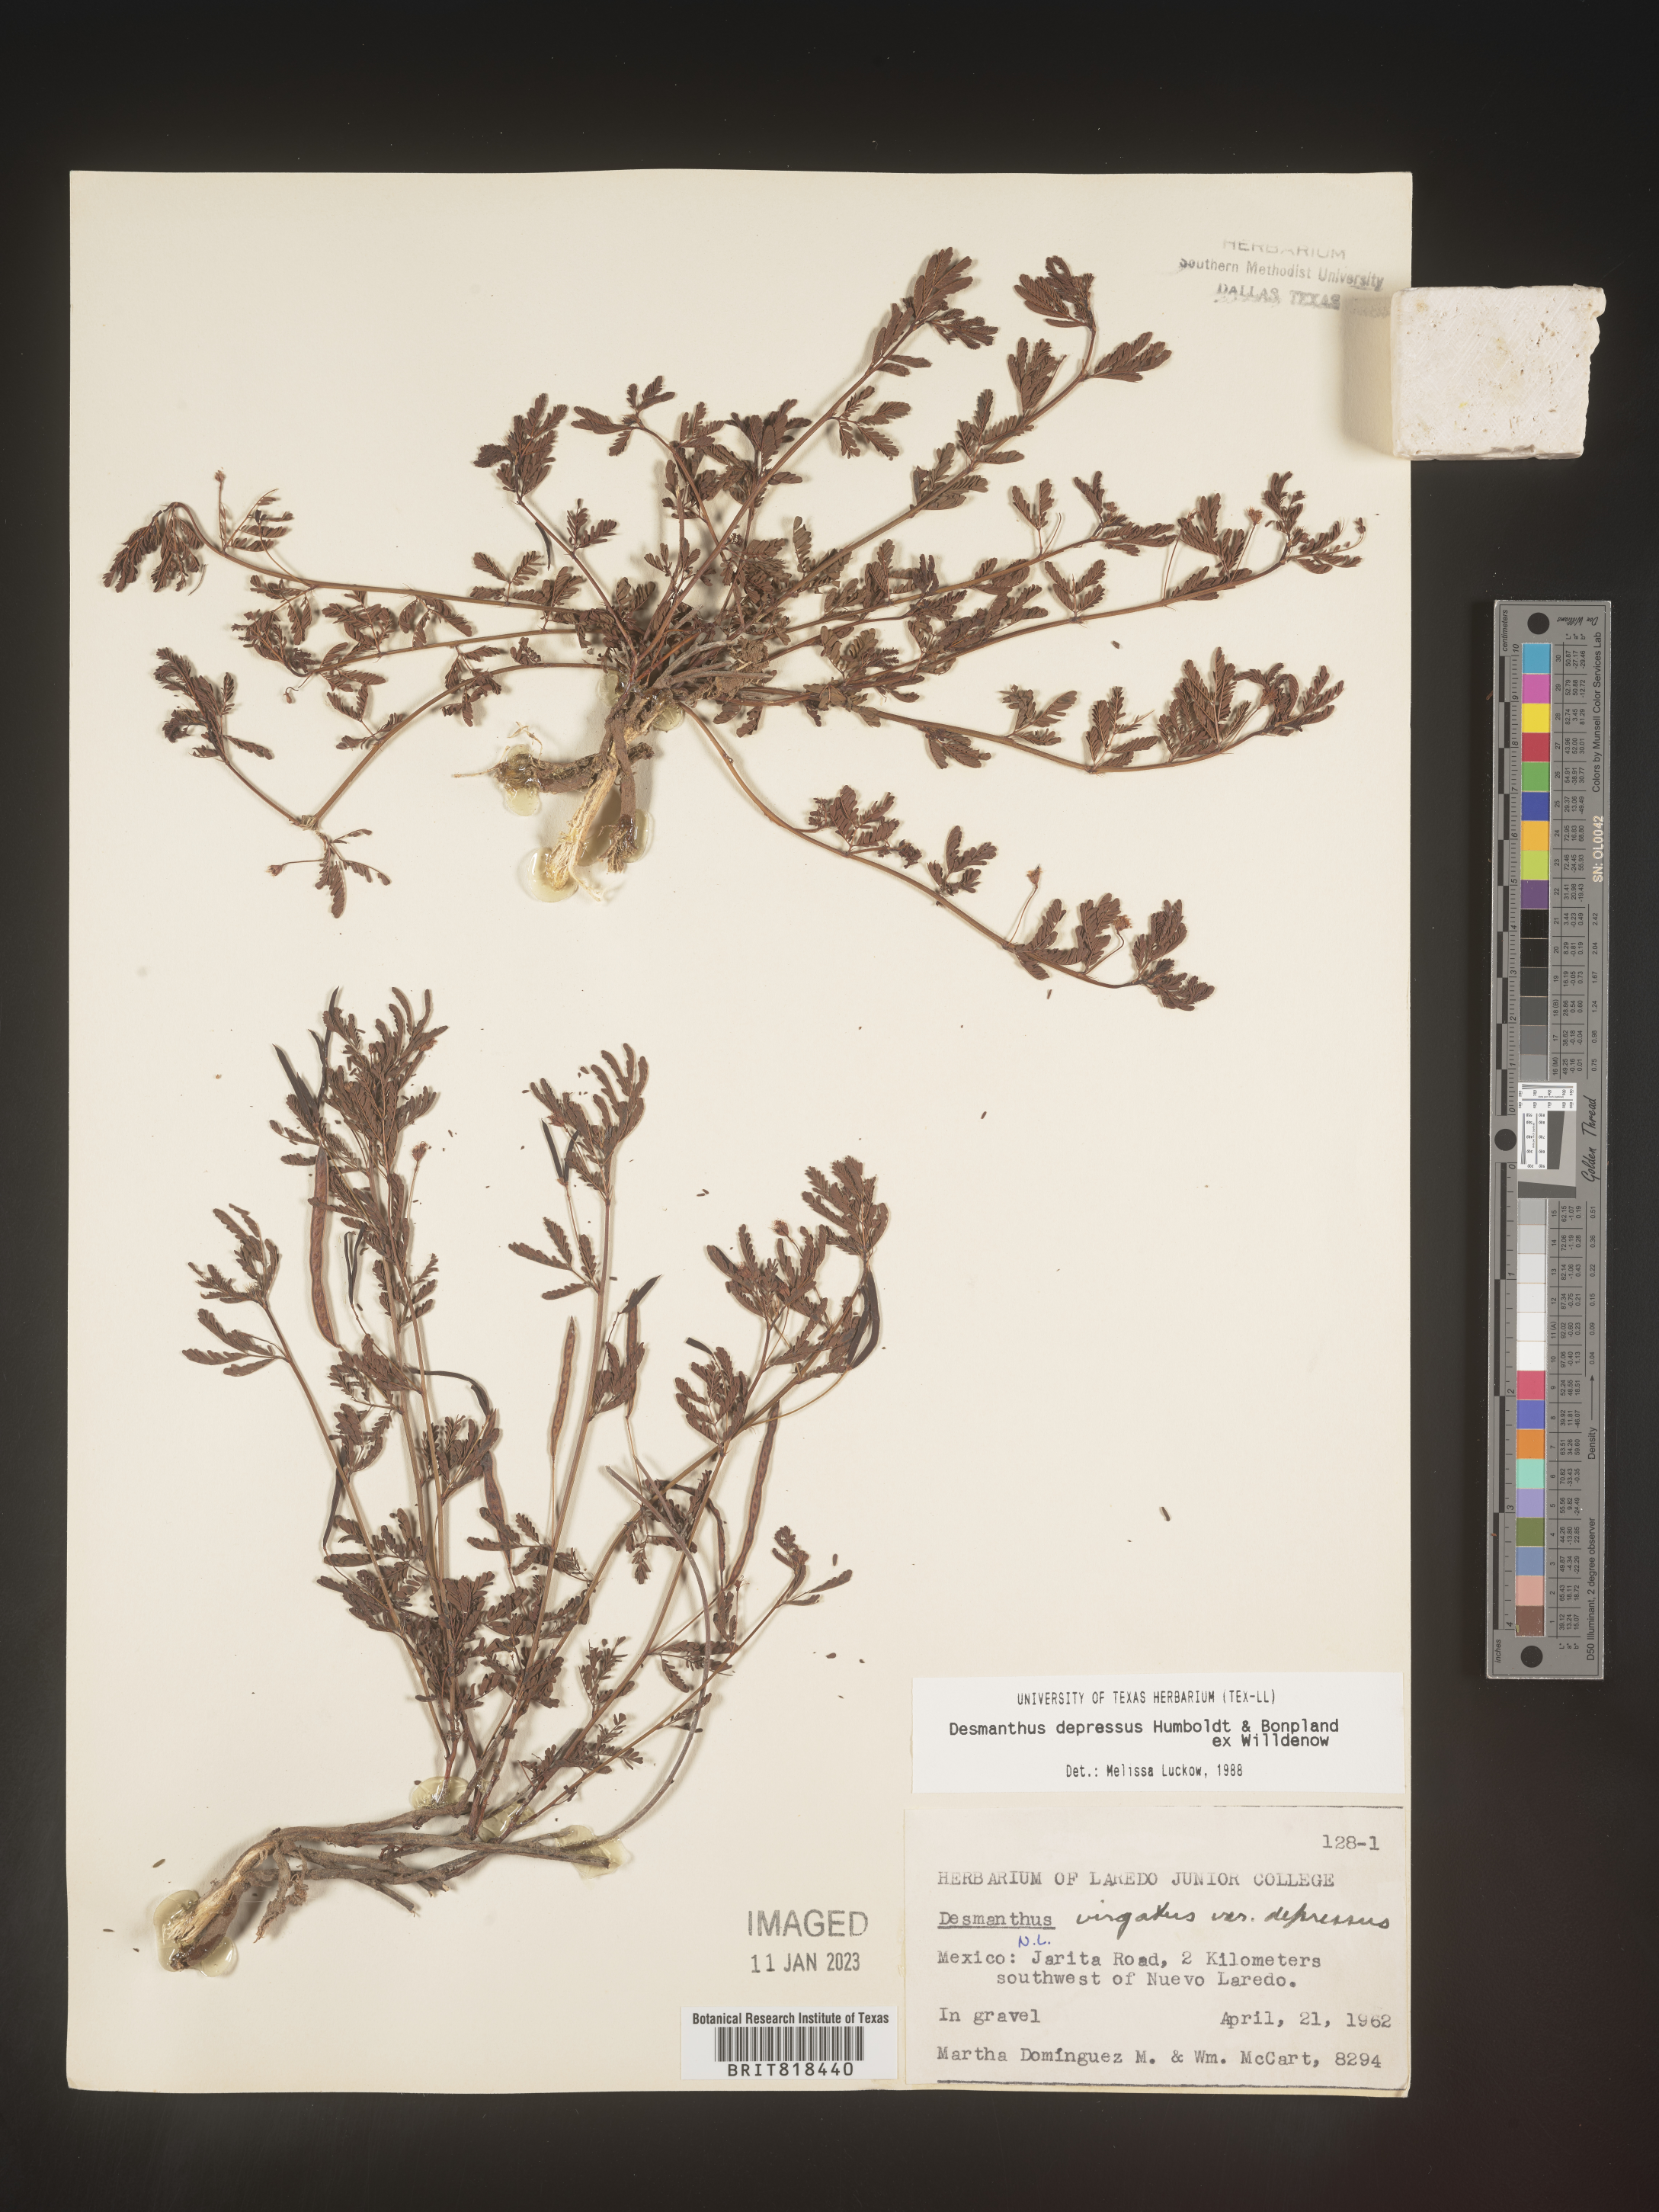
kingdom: Plantae
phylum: Tracheophyta
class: Magnoliopsida
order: Fabales
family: Fabaceae
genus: Desmanthus
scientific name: Desmanthus
